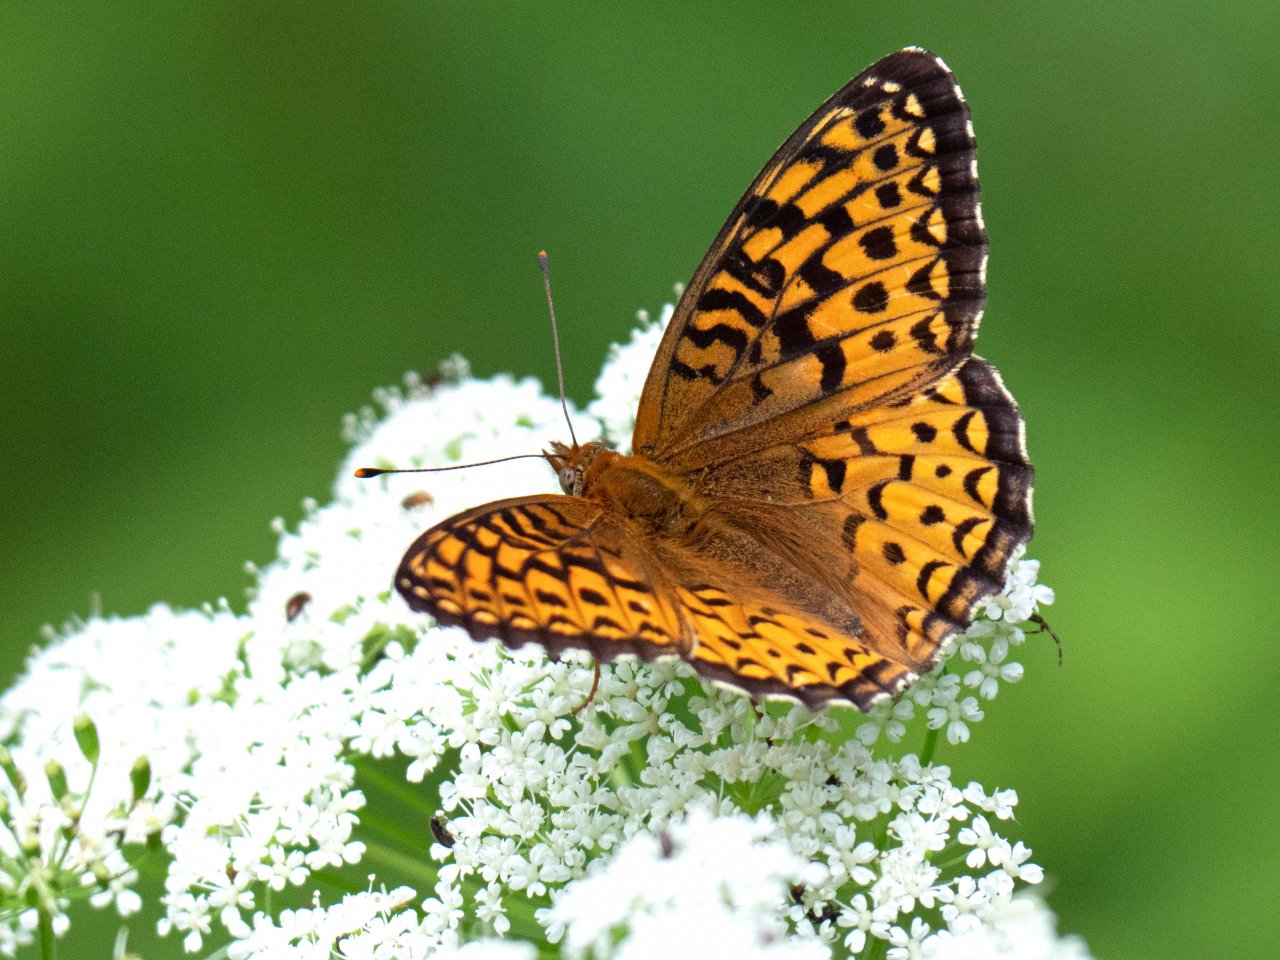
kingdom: Animalia
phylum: Arthropoda
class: Insecta
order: Lepidoptera
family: Nymphalidae
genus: Speyeria
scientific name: Speyeria atlantis
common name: Atlantis Fritillary
